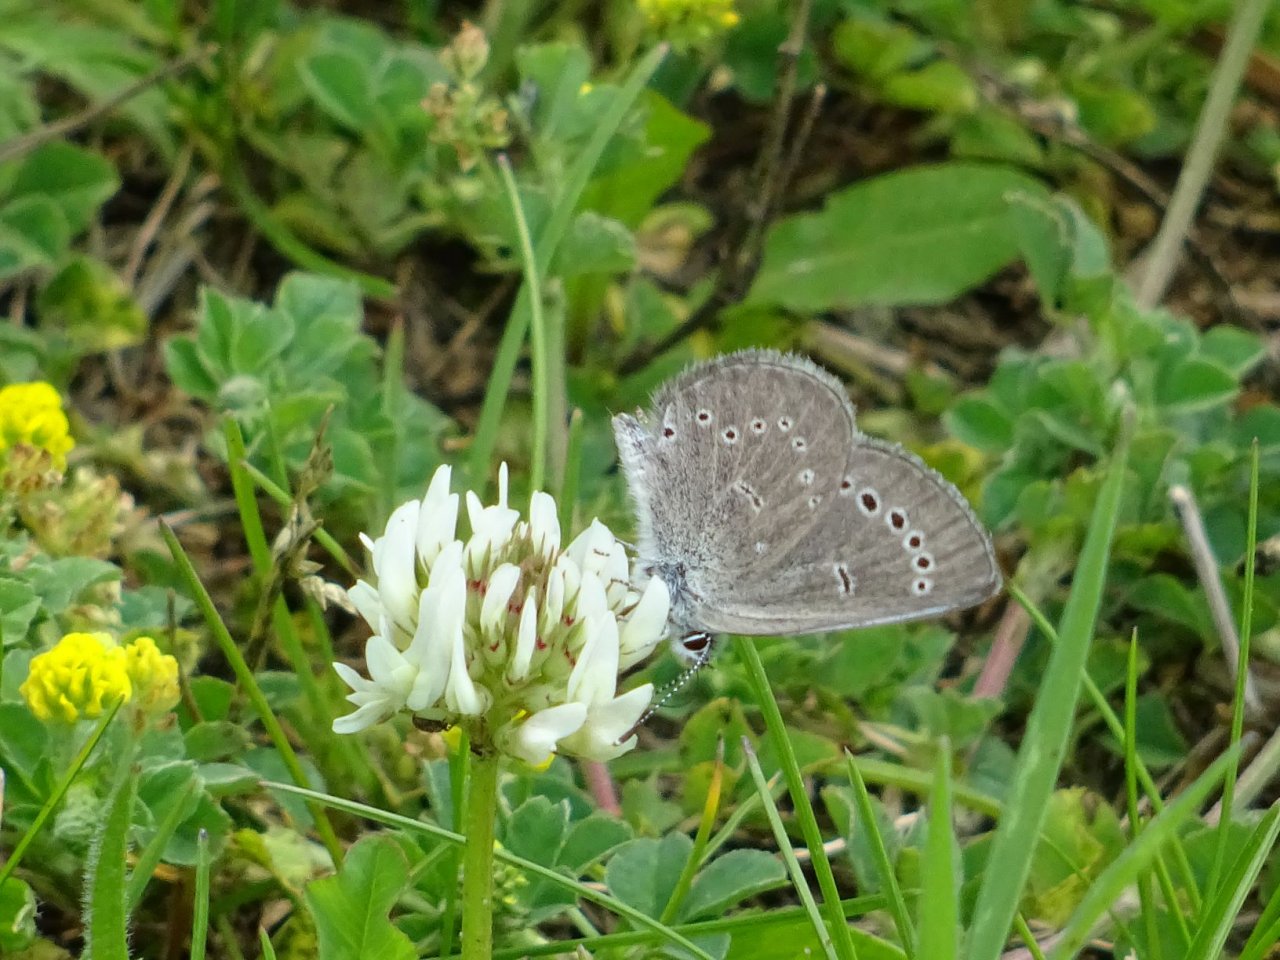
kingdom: Animalia
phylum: Arthropoda
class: Insecta
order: Lepidoptera
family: Lycaenidae
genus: Glaucopsyche
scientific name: Glaucopsyche lygdamus
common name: Silvery Blue
